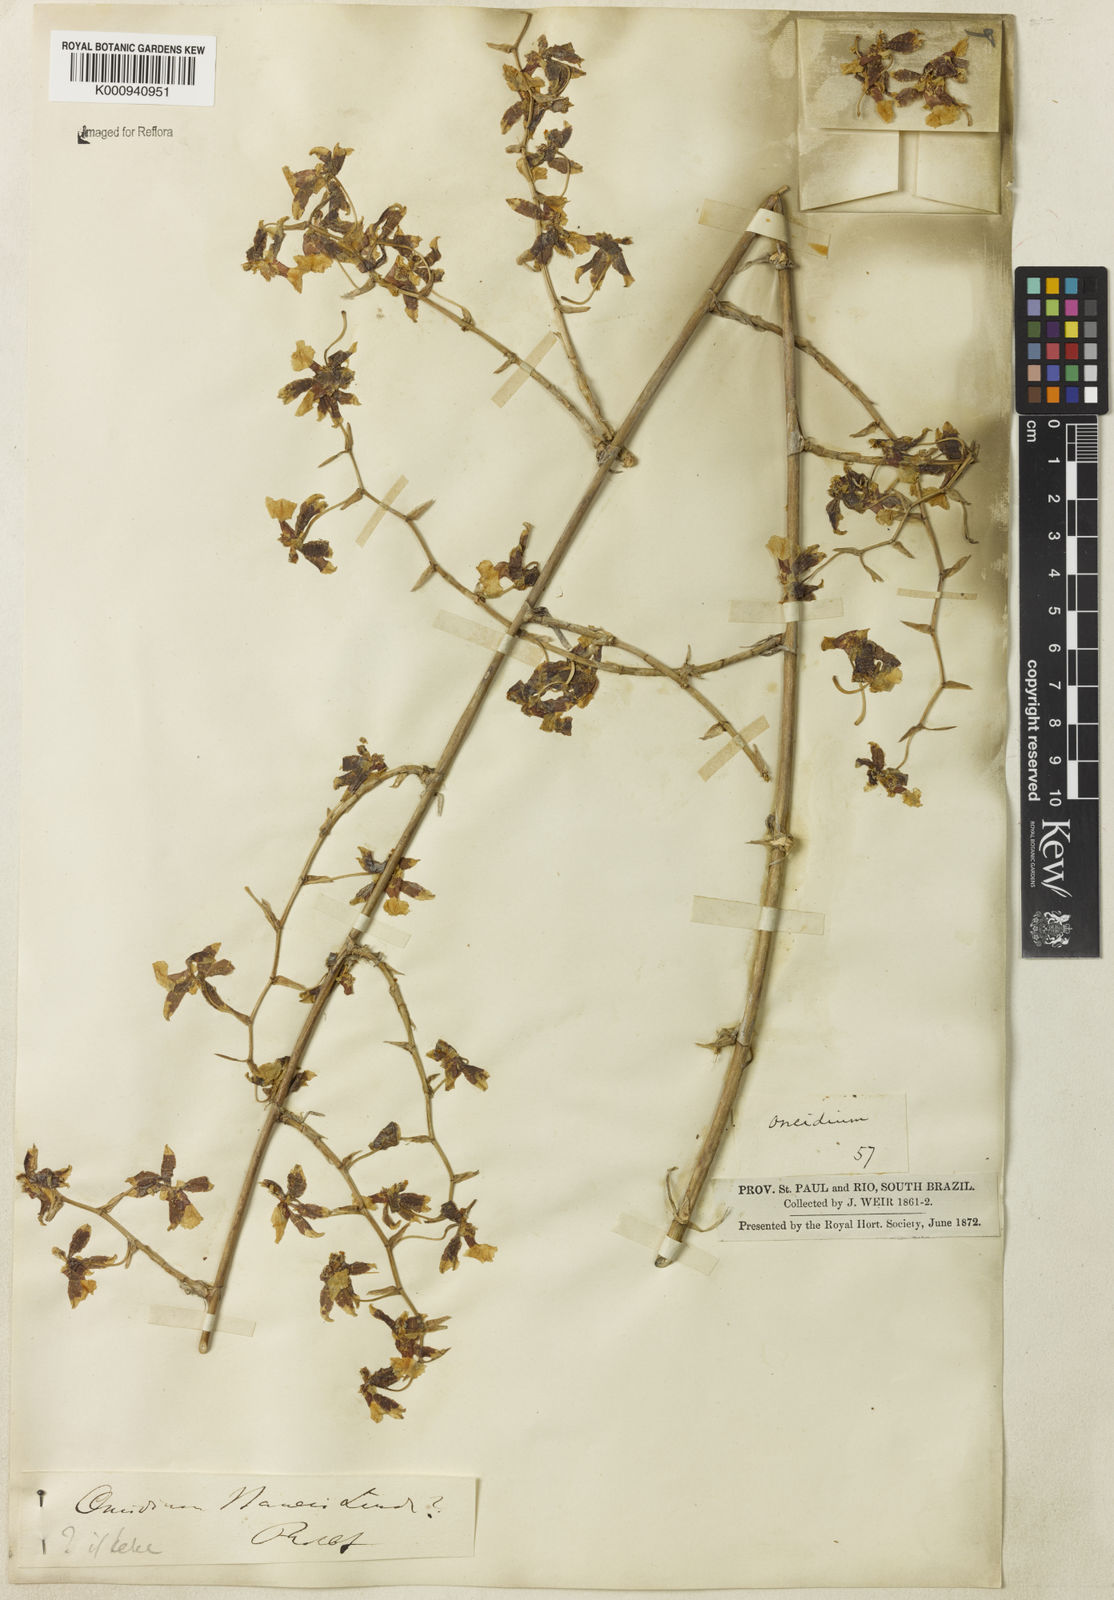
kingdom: Plantae
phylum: Tracheophyta
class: Liliopsida
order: Asparagales
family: Orchidaceae
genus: Oncidium
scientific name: Oncidium baueri
